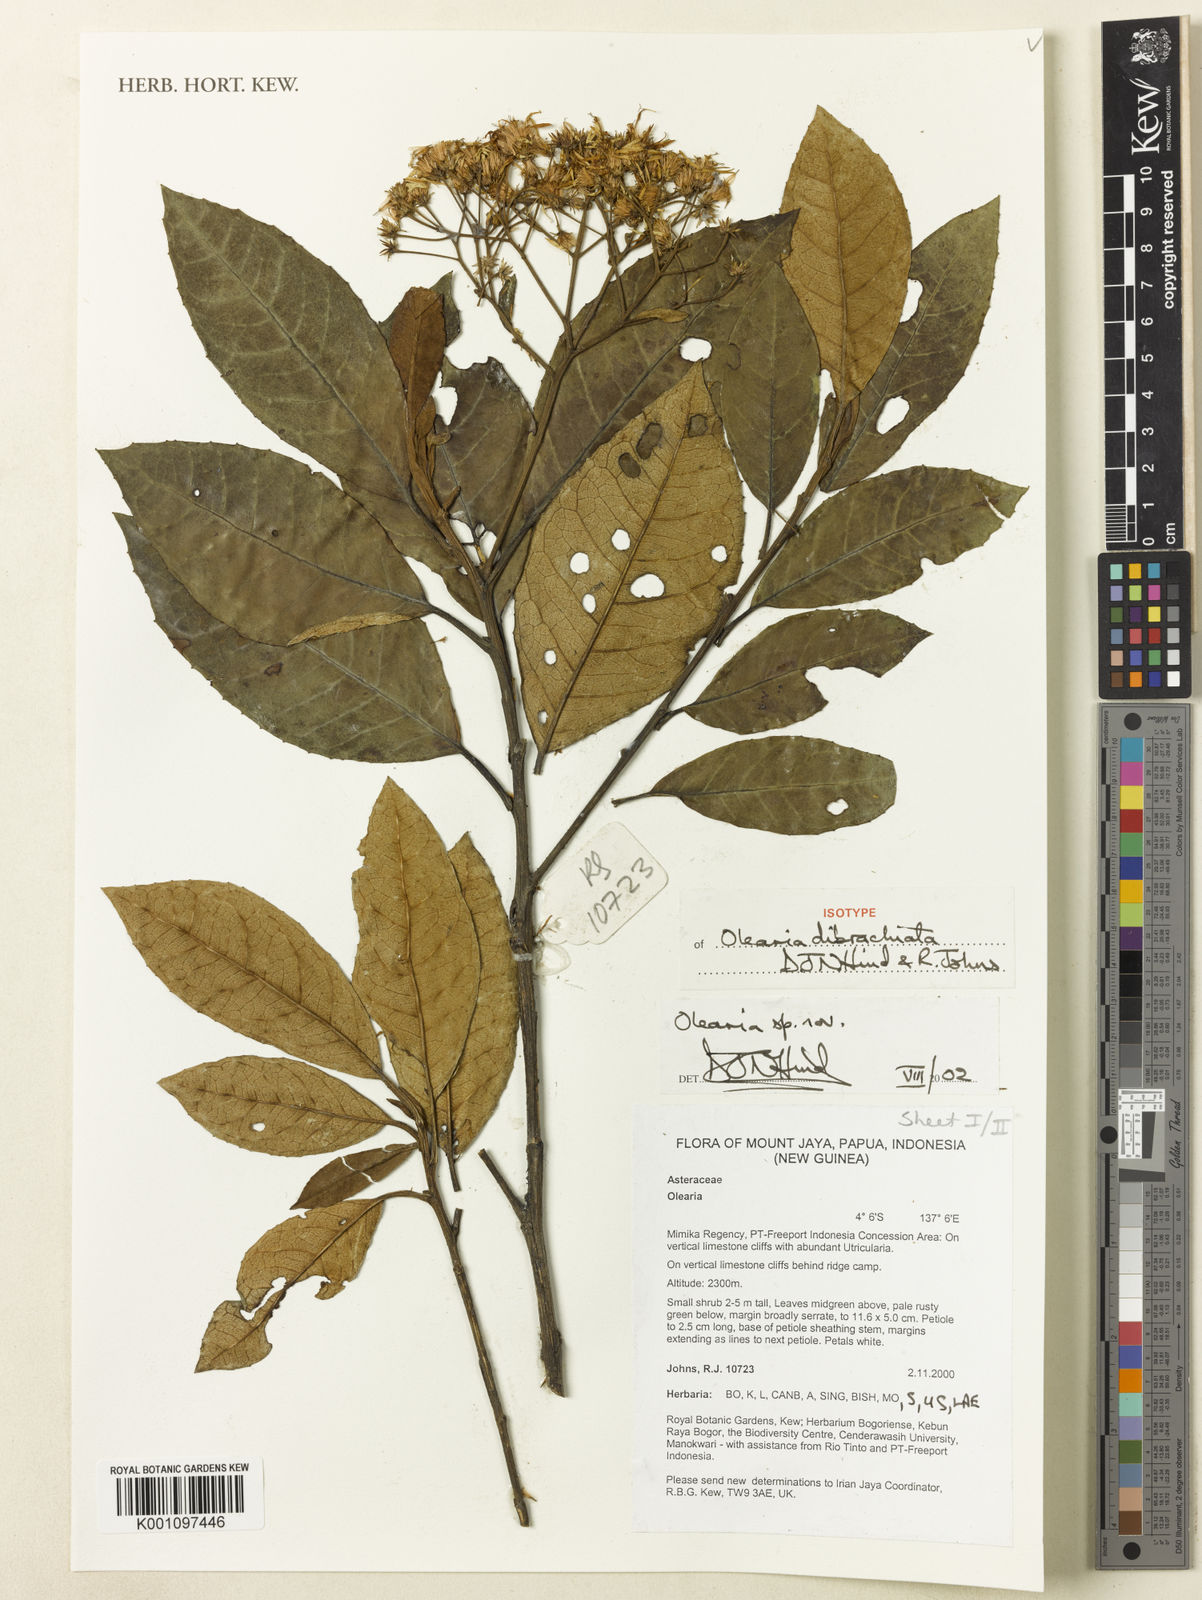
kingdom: Plantae
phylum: Tracheophyta
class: Magnoliopsida
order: Asterales
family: Asteraceae
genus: Olearia
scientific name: Olearia dibrachiata
